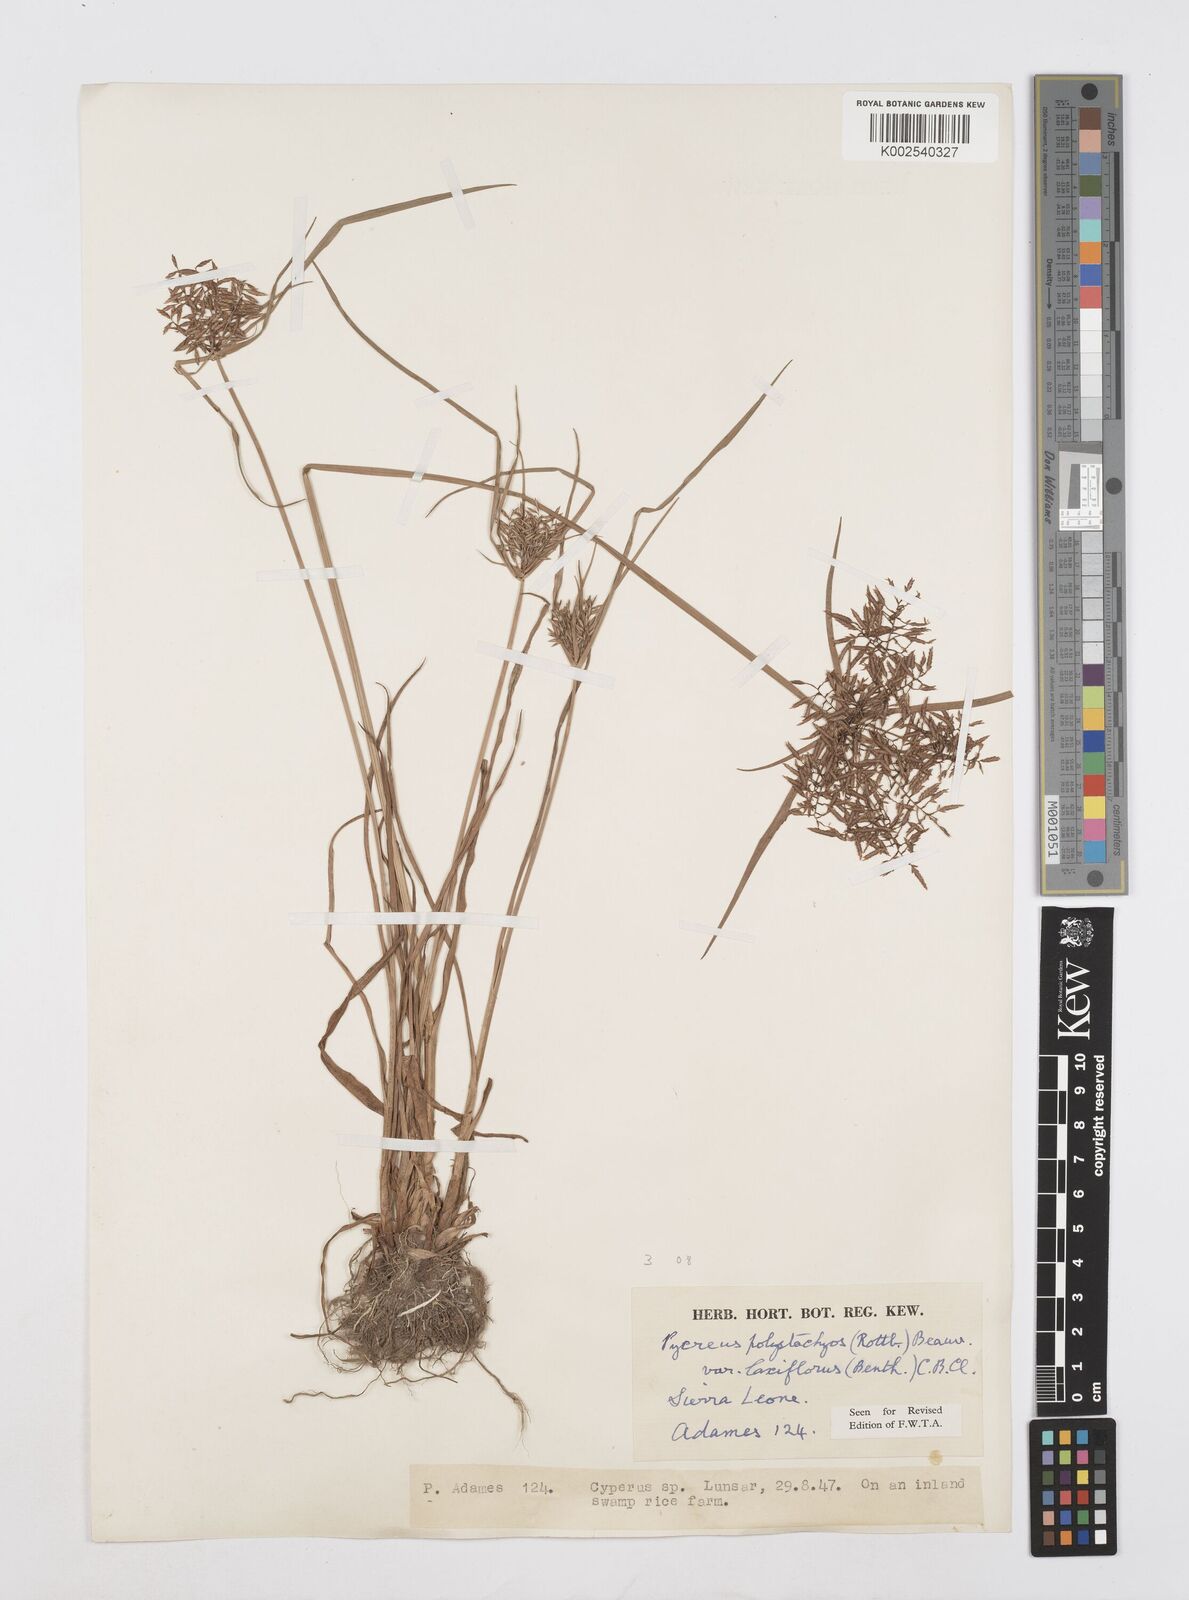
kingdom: Plantae
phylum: Tracheophyta
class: Liliopsida
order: Poales
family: Cyperaceae
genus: Cyperus
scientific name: Cyperus polystachyos
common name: Bunchy flat sedge
